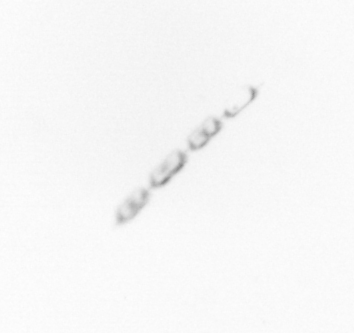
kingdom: Chromista
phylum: Ochrophyta
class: Bacillariophyceae
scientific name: Bacillariophyceae
